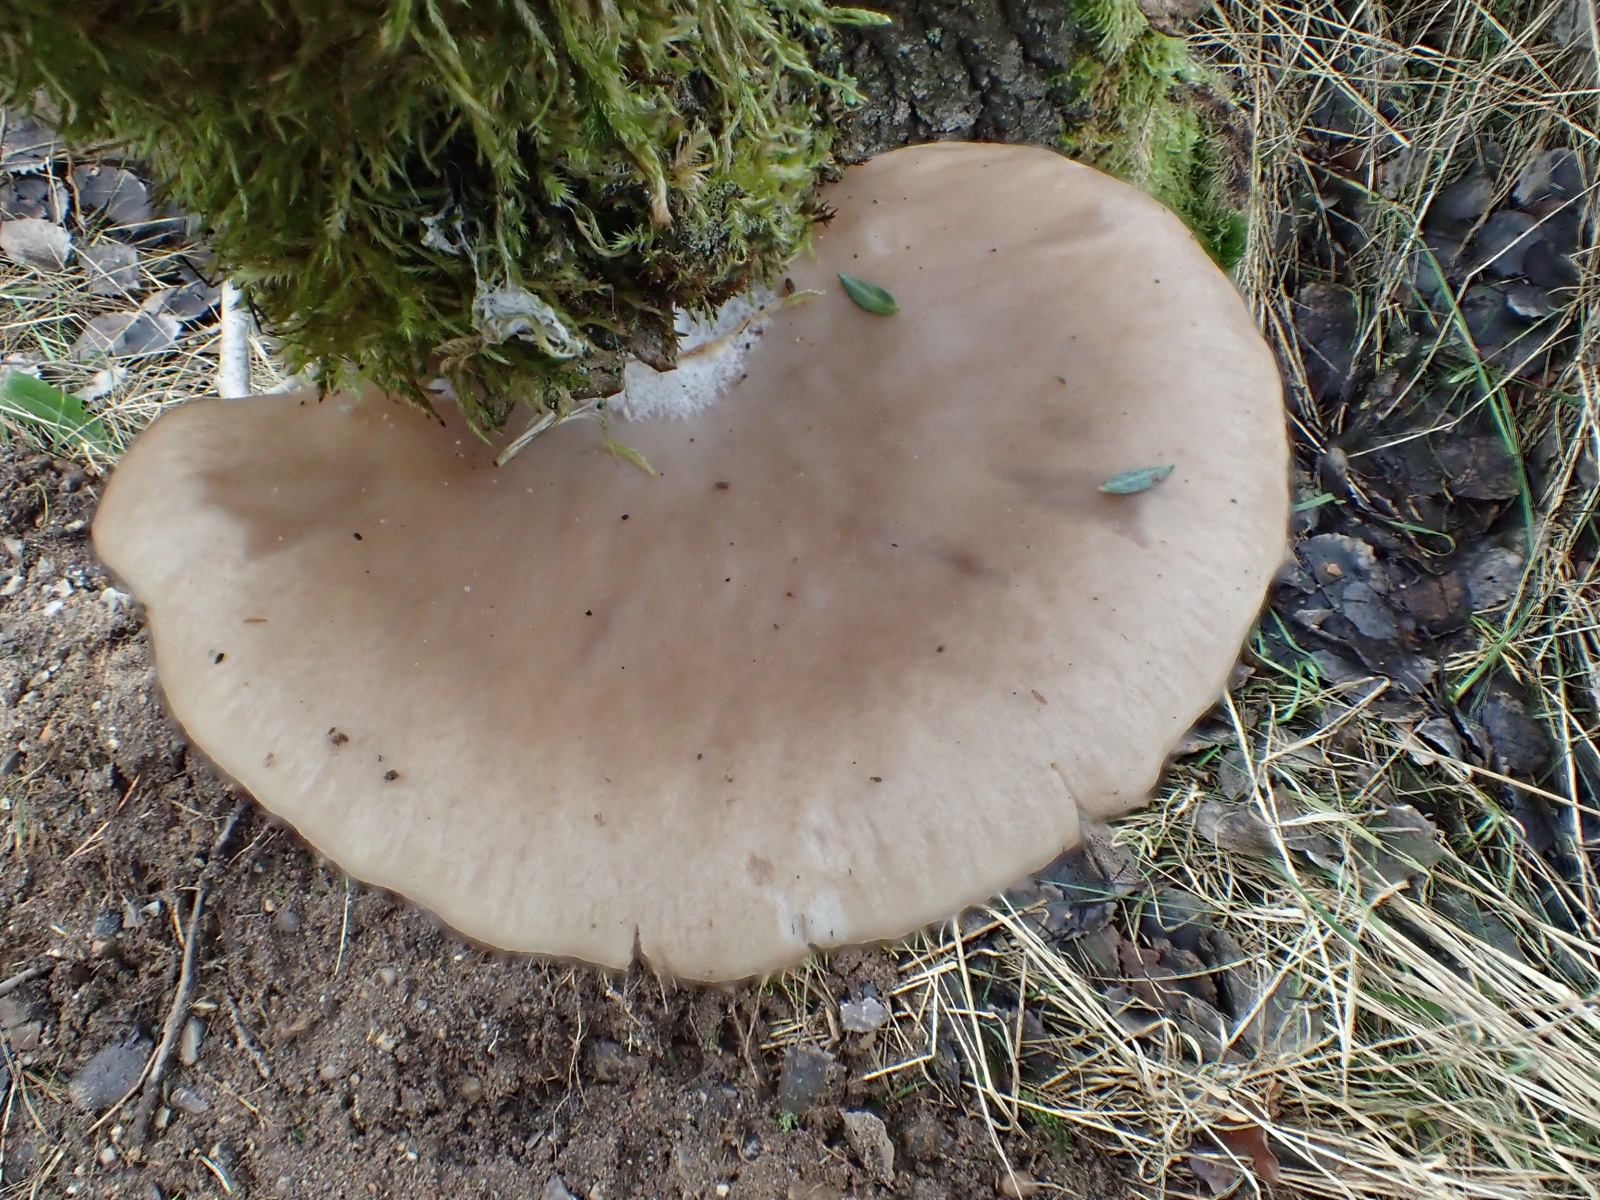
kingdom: Fungi
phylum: Basidiomycota
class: Agaricomycetes
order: Agaricales
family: Pleurotaceae
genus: Pleurotus
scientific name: Pleurotus ostreatus
